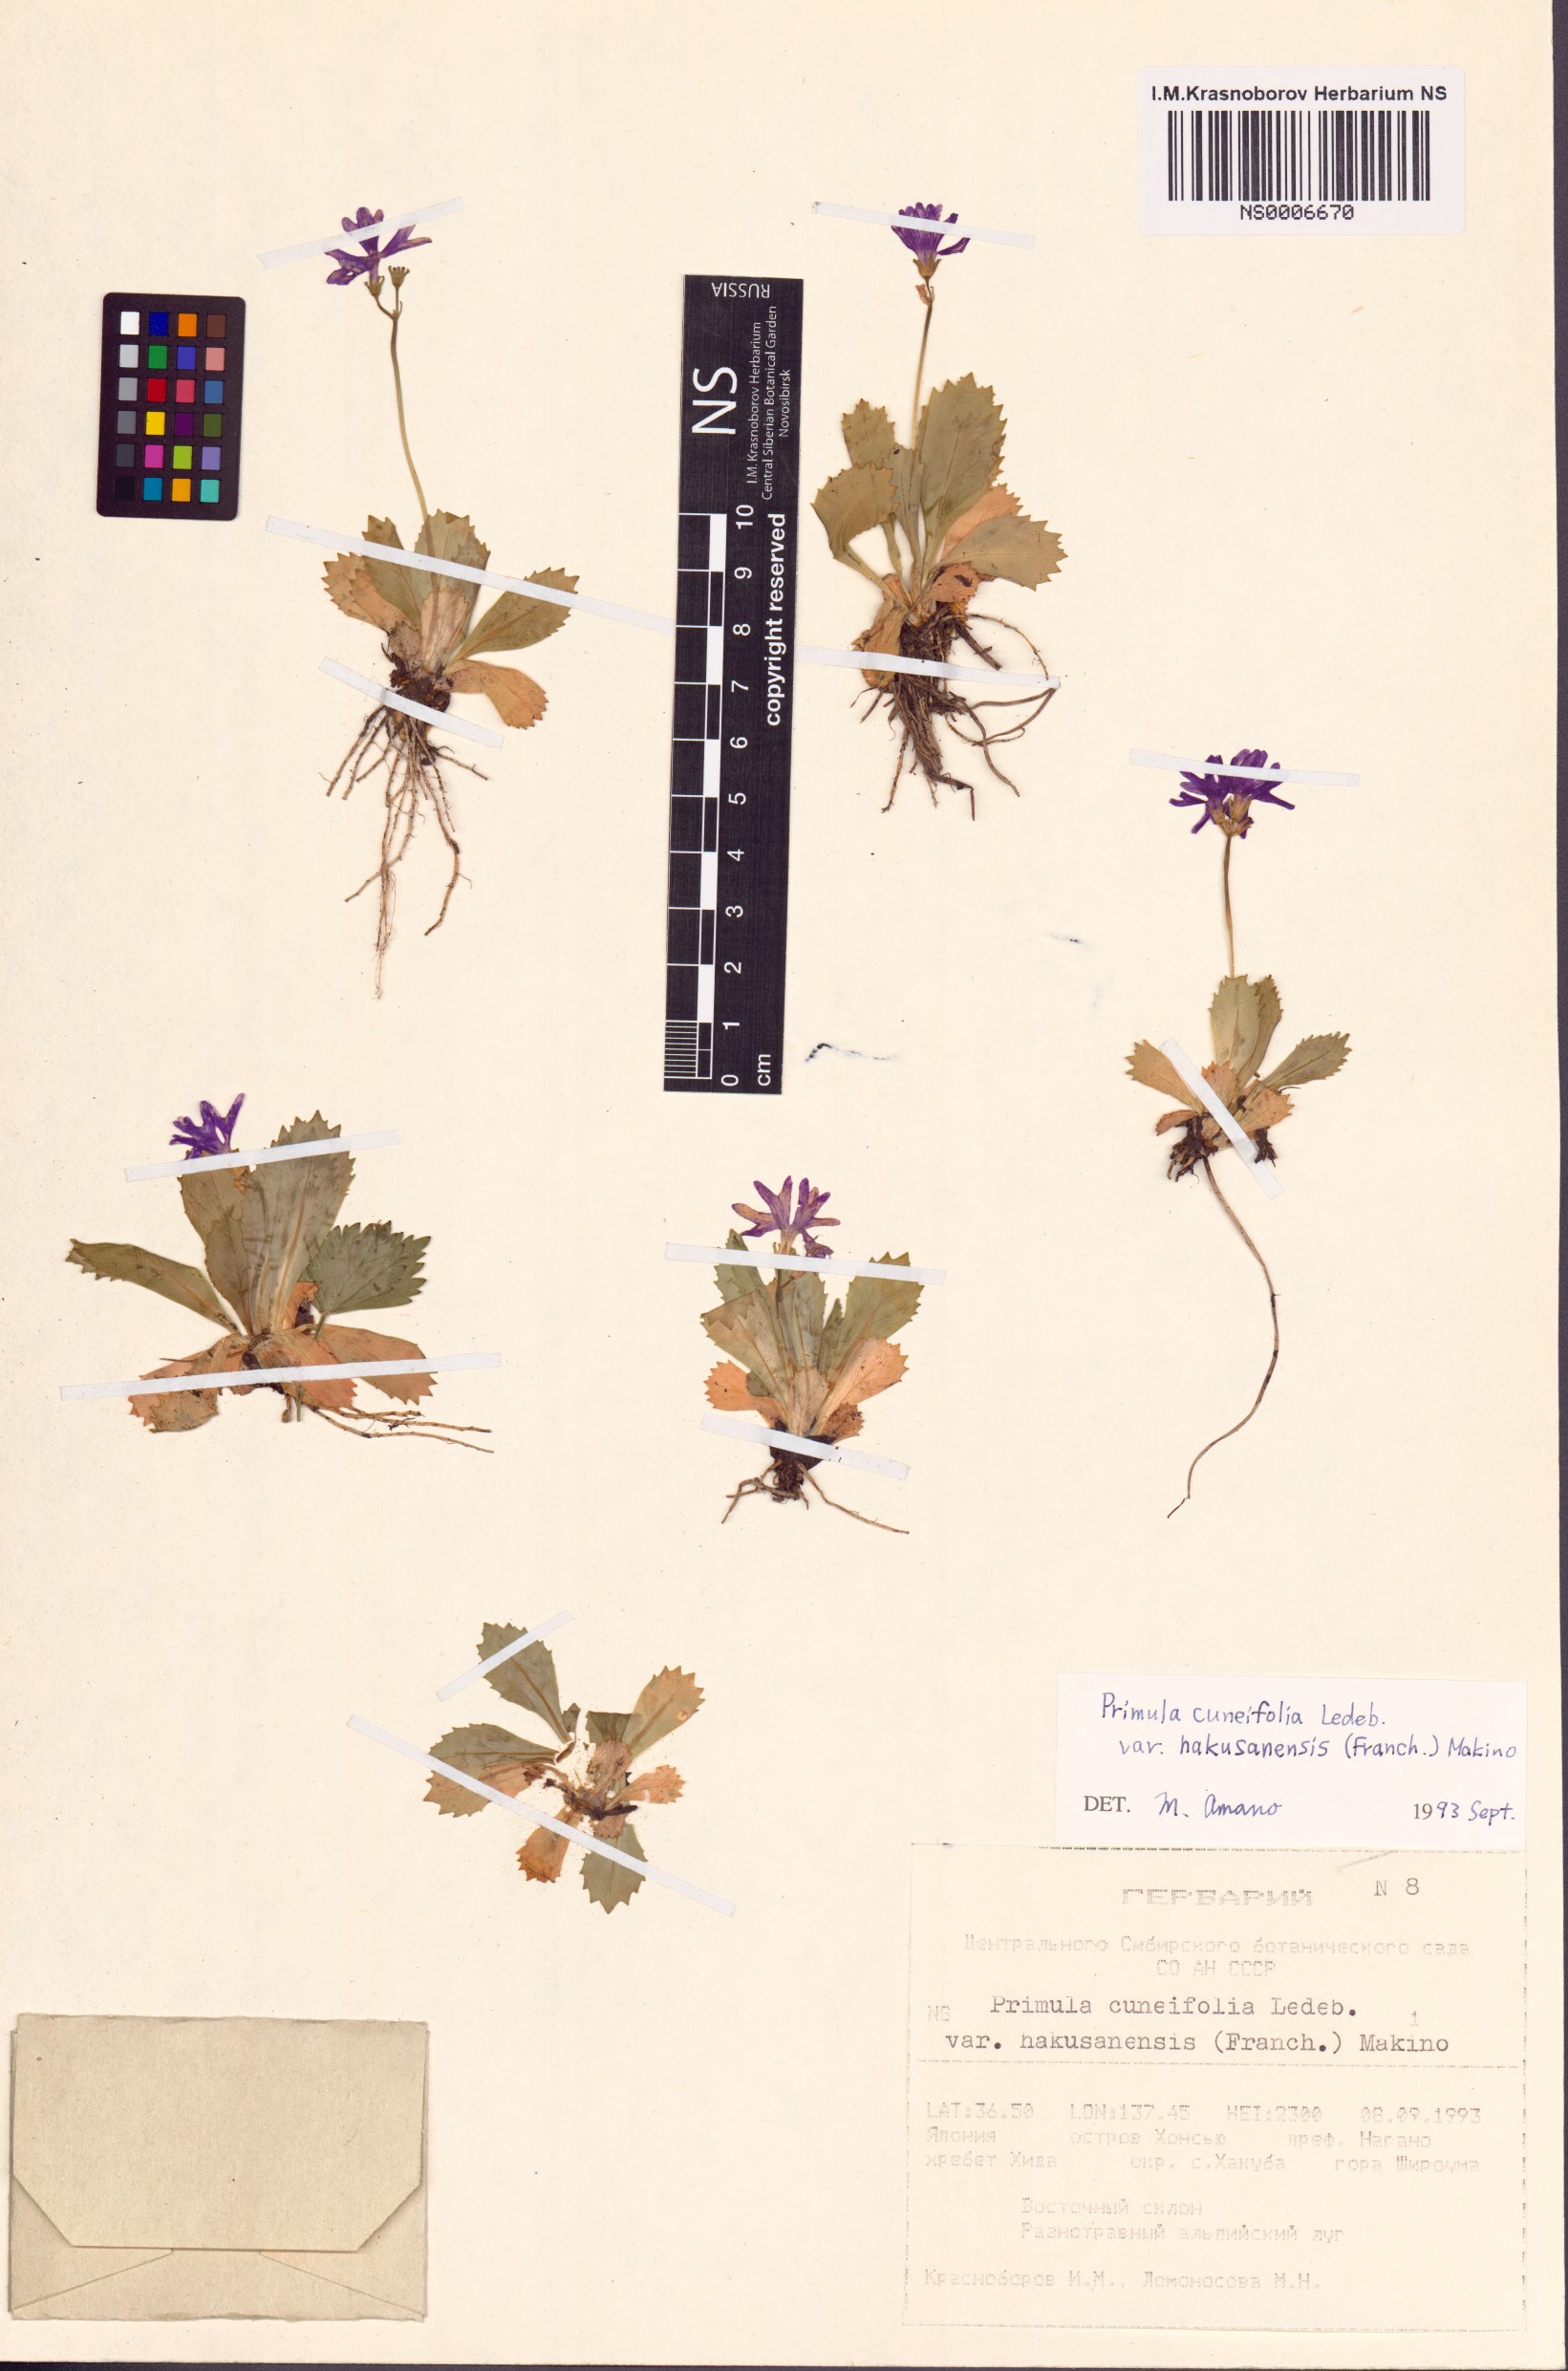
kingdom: Plantae
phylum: Tracheophyta
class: Magnoliopsida
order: Ericales
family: Primulaceae
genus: Primula
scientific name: Primula cuneifolia
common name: Wedge-leaved primrose
